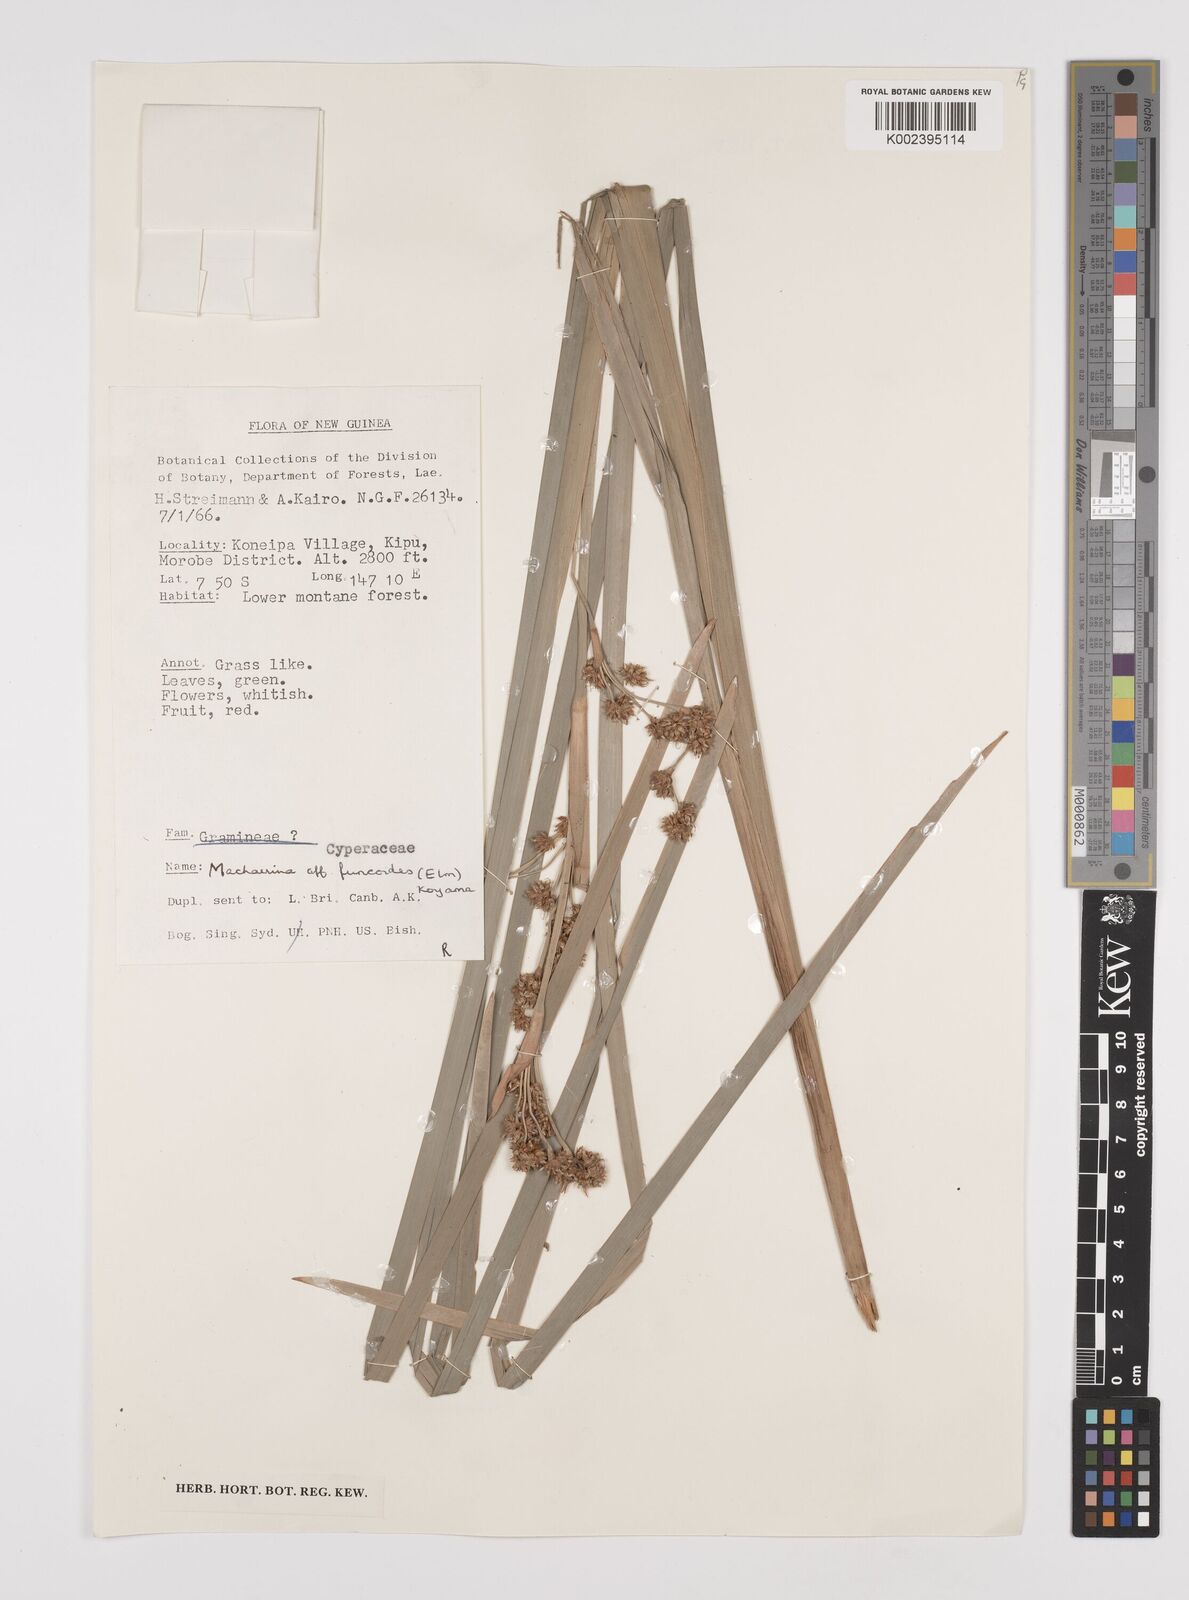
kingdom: Plantae
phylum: Tracheophyta
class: Liliopsida
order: Poales
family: Cyperaceae
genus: Machaerina
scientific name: Machaerina glomerata
